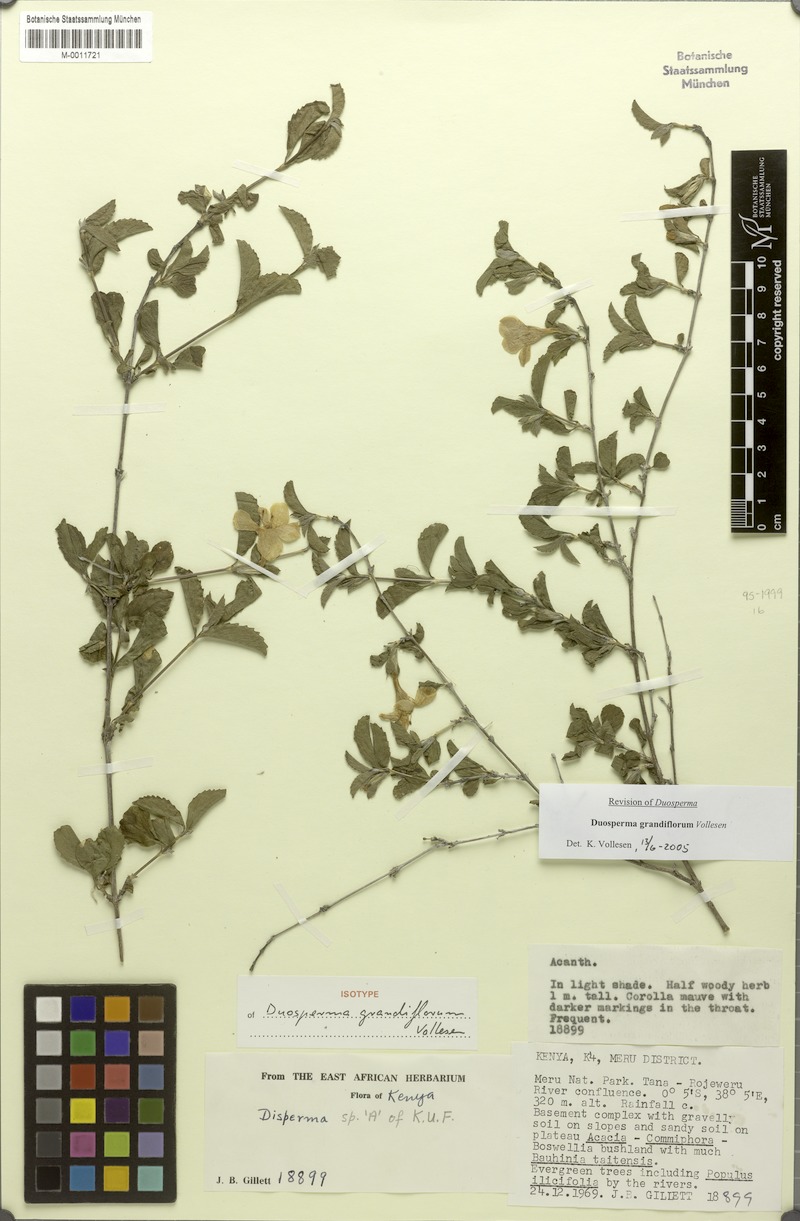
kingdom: Plantae
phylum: Tracheophyta
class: Magnoliopsida
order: Lamiales
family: Acanthaceae
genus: Duosperma
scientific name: Duosperma grandiflorum
